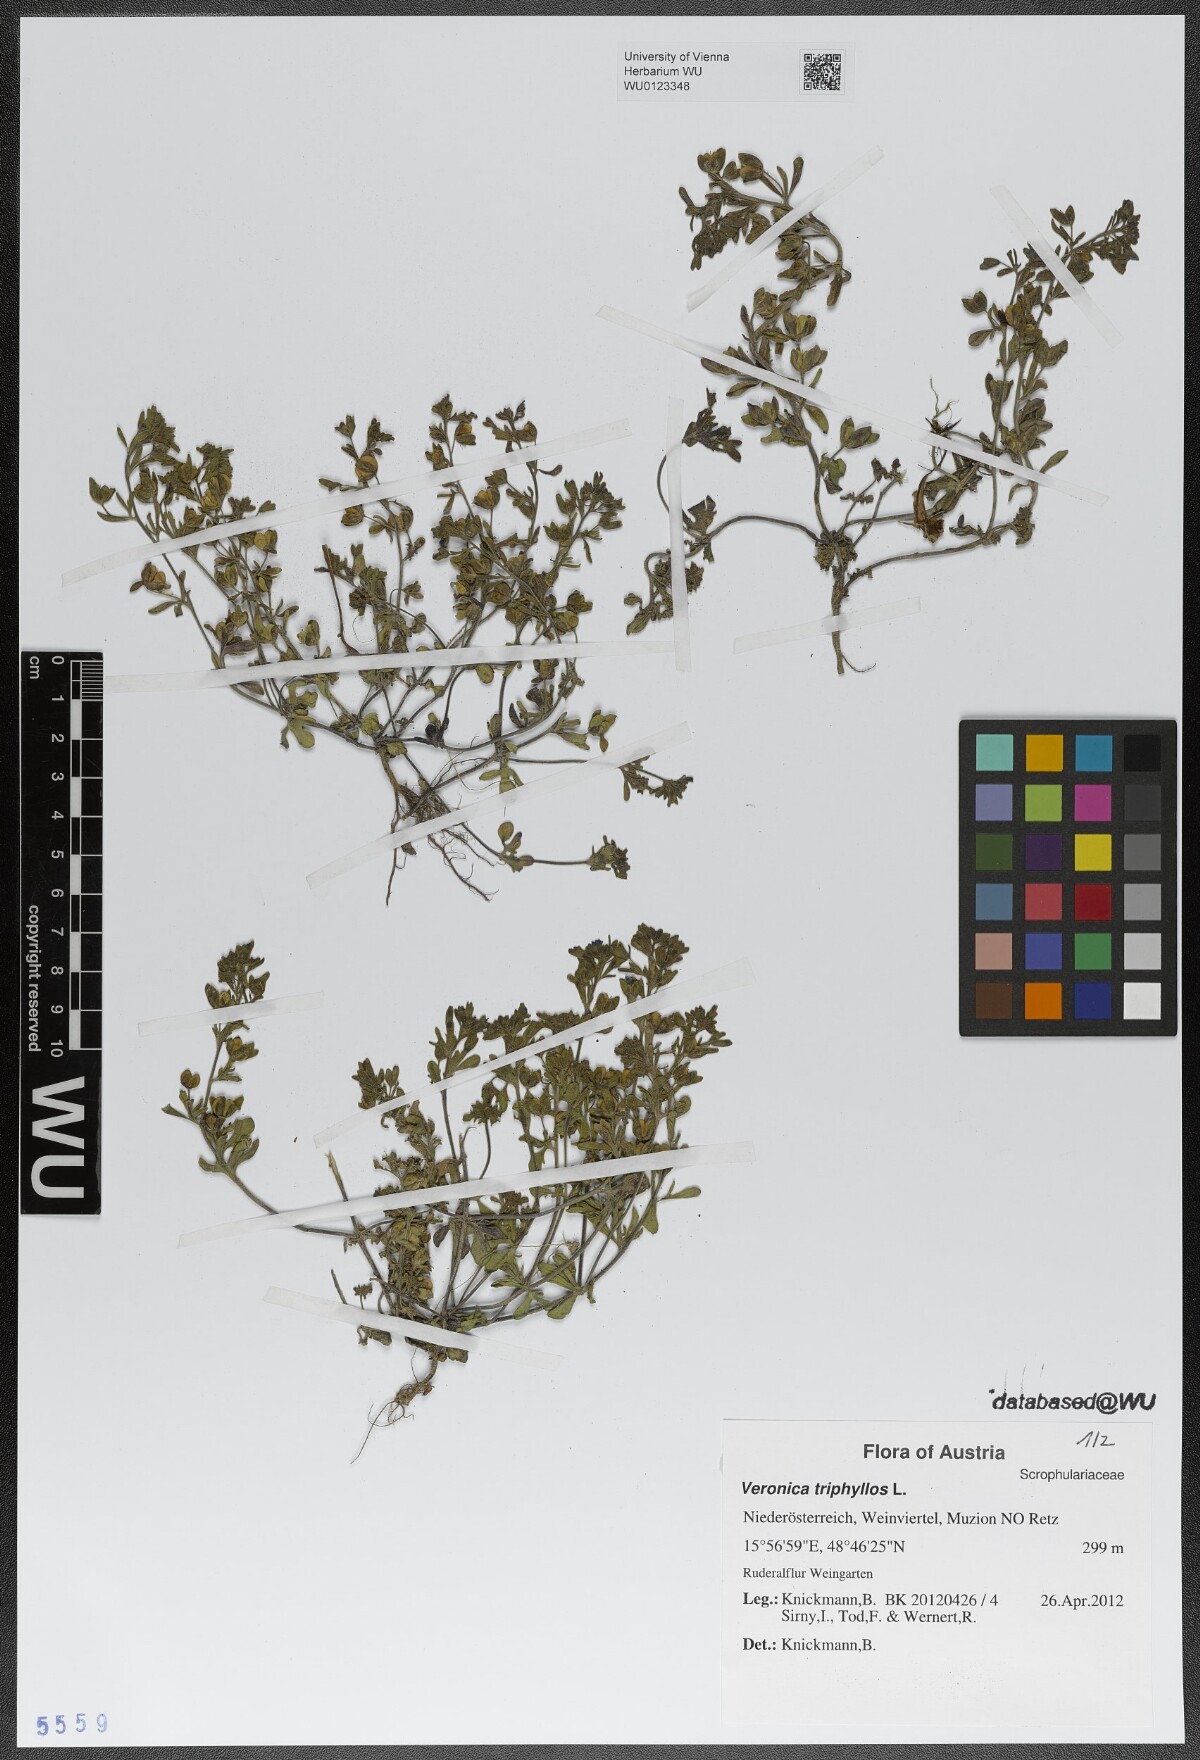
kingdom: Plantae
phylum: Tracheophyta
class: Magnoliopsida
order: Lamiales
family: Plantaginaceae
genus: Veronica
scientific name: Veronica triphyllos
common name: Fingered speedwell
